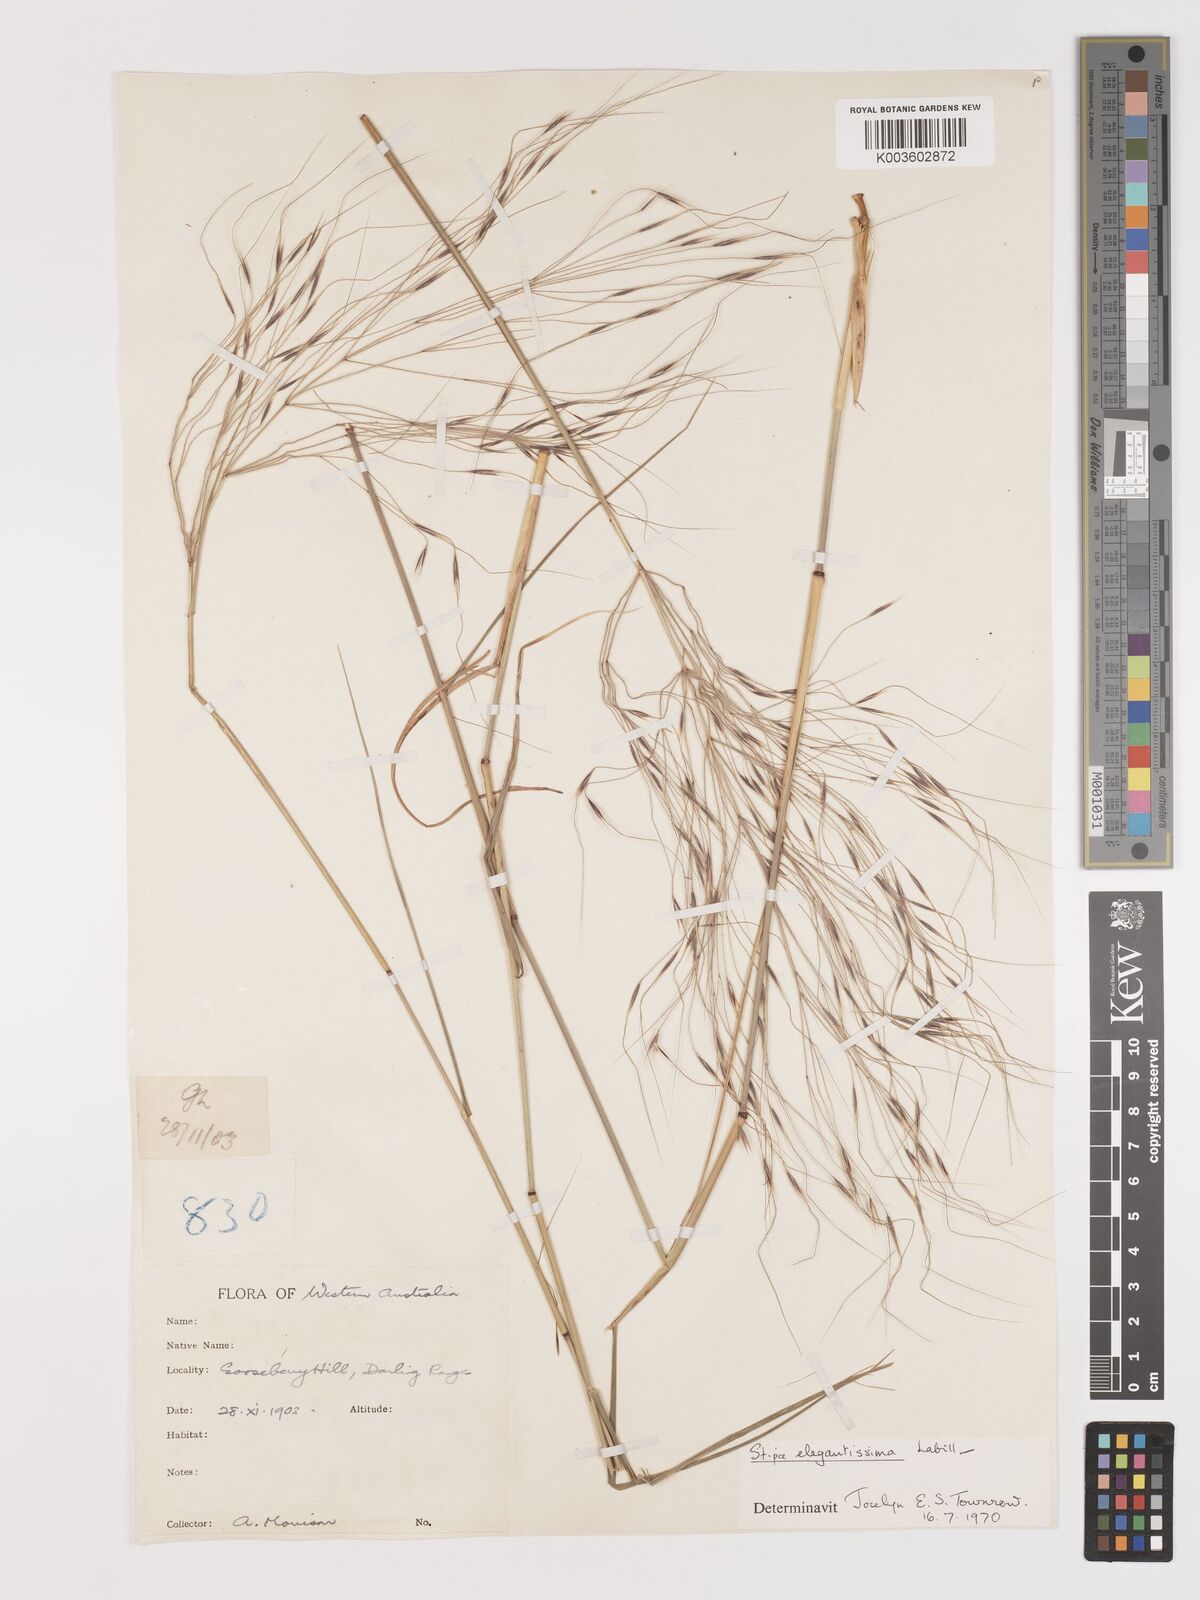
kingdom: Plantae
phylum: Tracheophyta
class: Liliopsida
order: Poales
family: Poaceae
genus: Austrostipa
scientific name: Austrostipa elegantissima
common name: Feather spear grass
